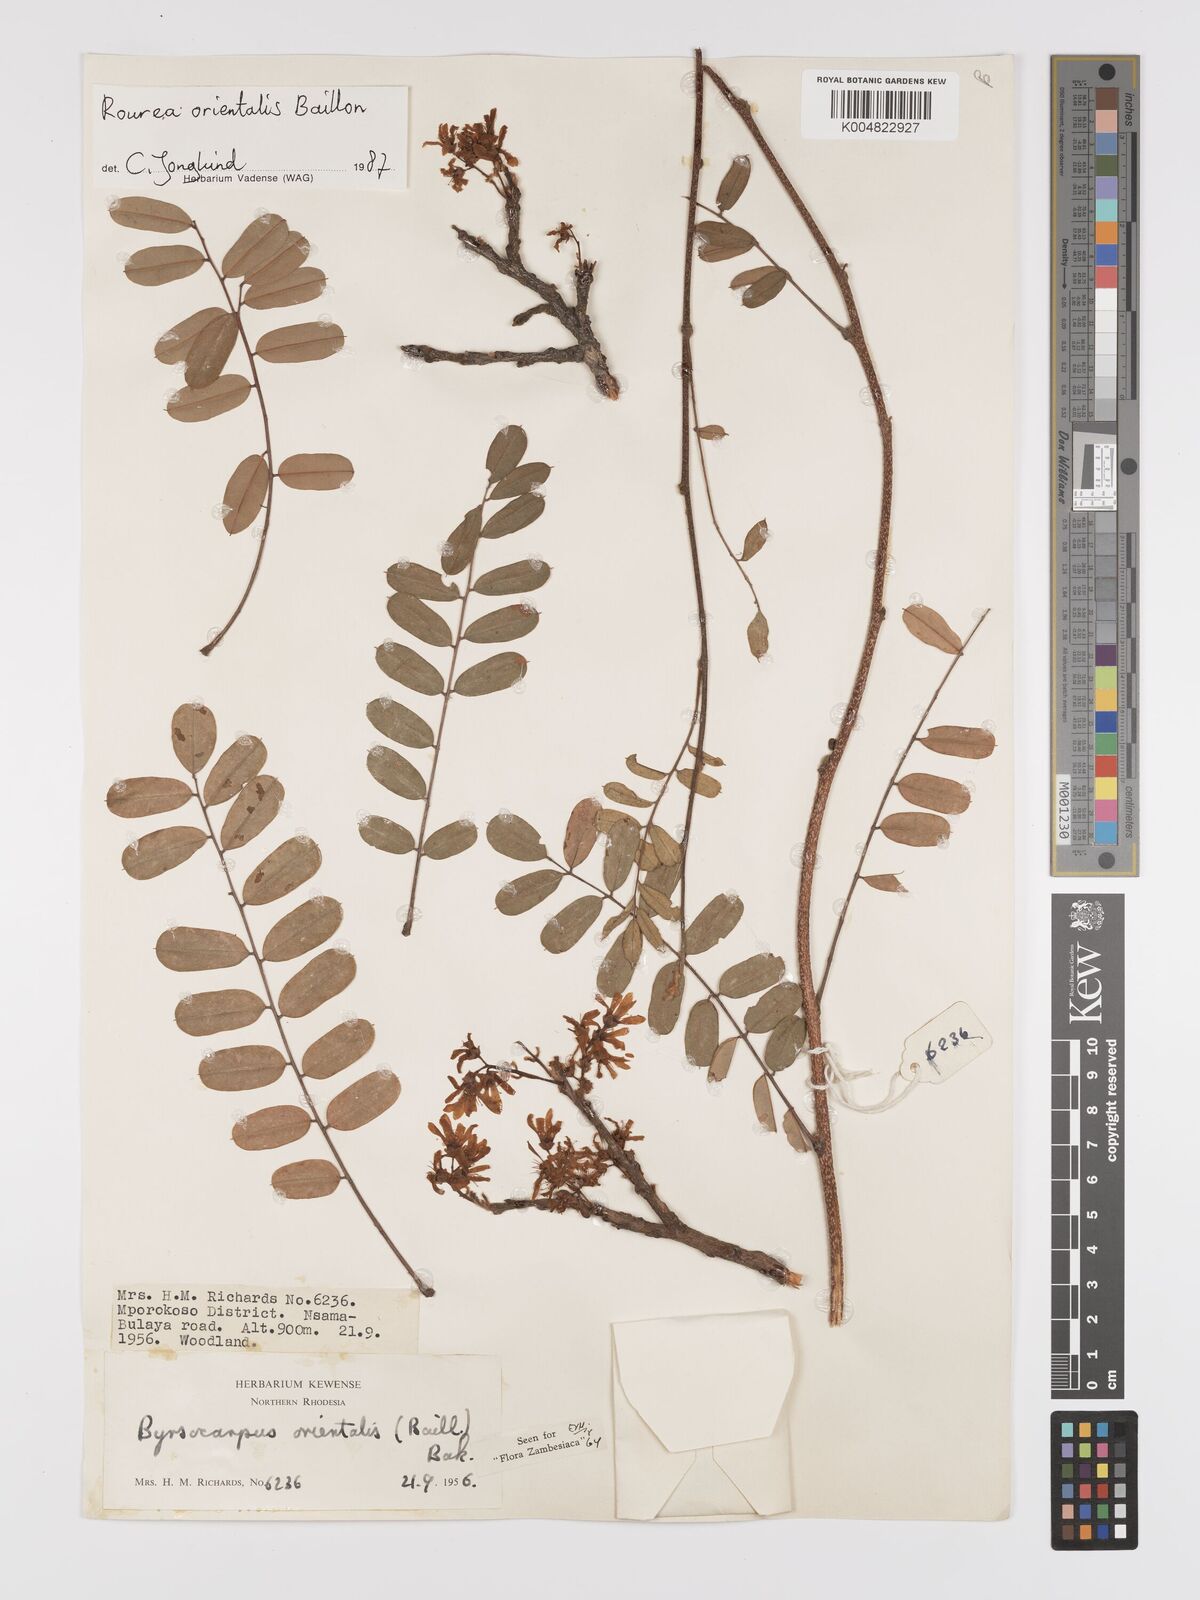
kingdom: Plantae
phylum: Tracheophyta
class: Magnoliopsida
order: Oxalidales
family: Connaraceae
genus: Rourea
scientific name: Rourea orientalis
